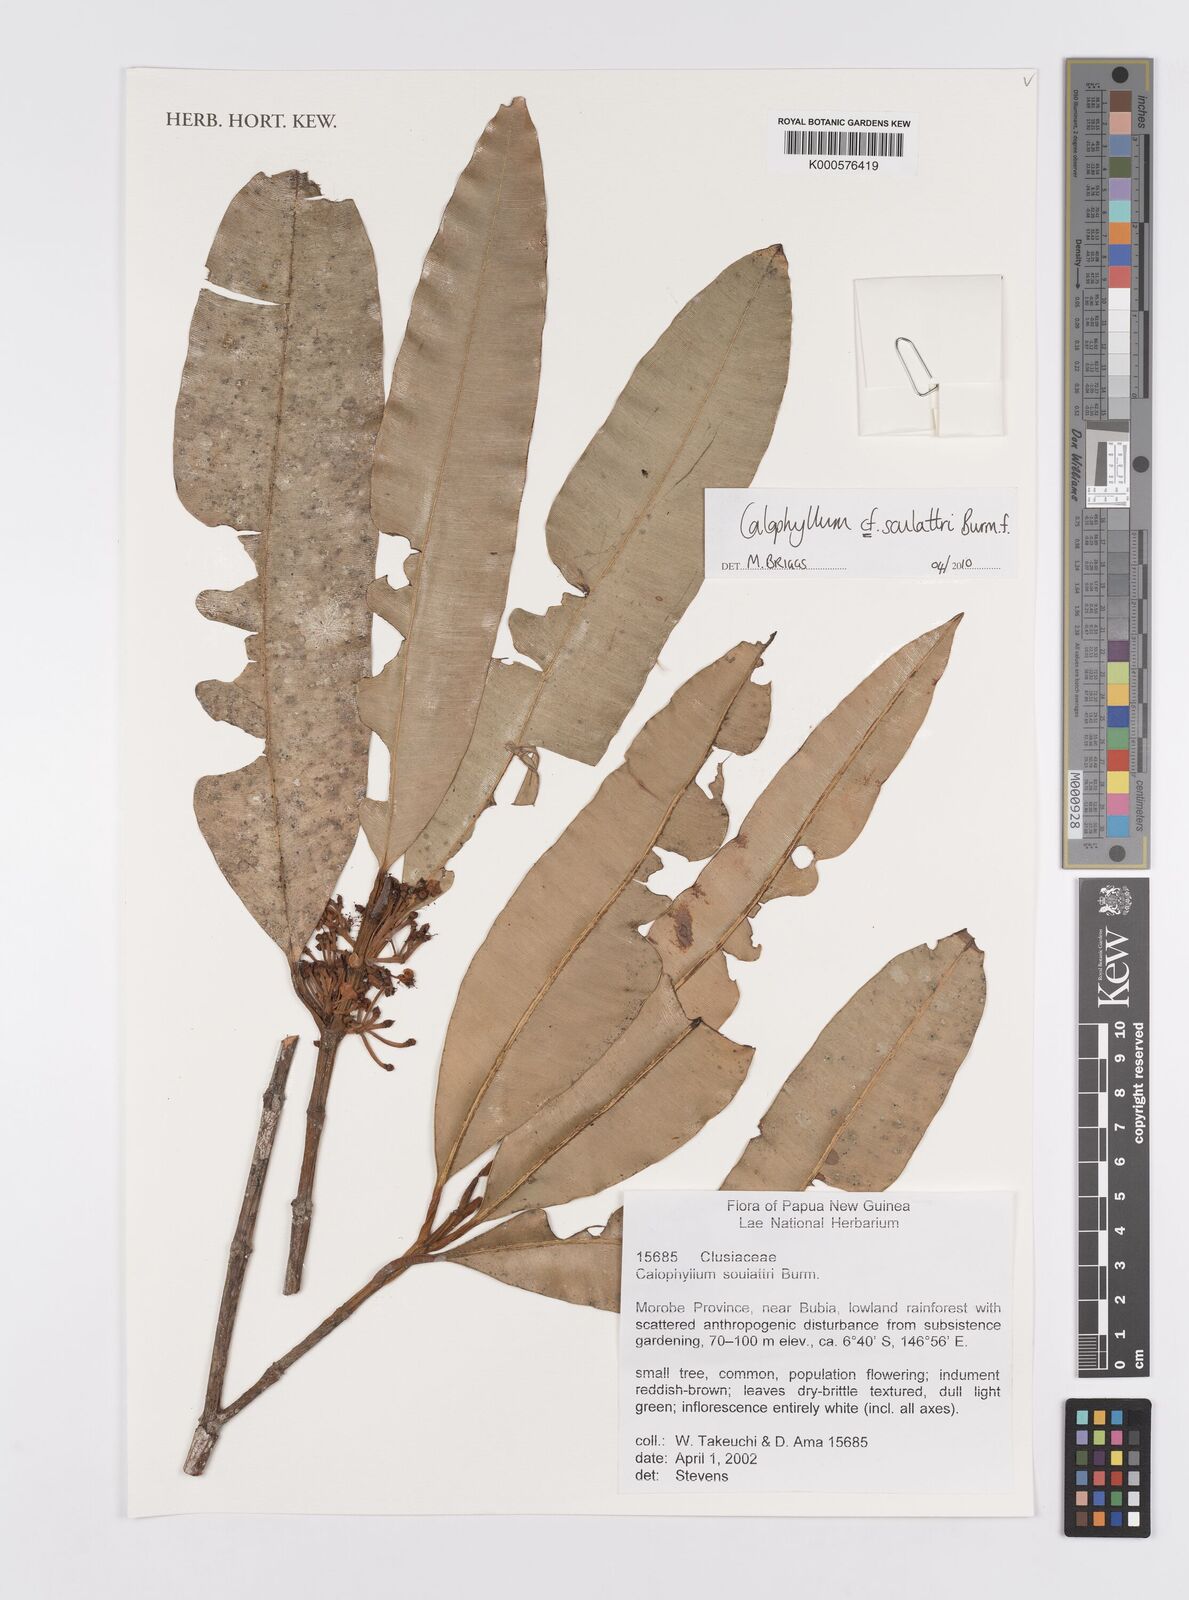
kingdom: Plantae
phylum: Tracheophyta
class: Magnoliopsida
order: Malpighiales
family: Calophyllaceae
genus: Calophyllum
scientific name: Calophyllum soulattri
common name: Bitangoor boonot
